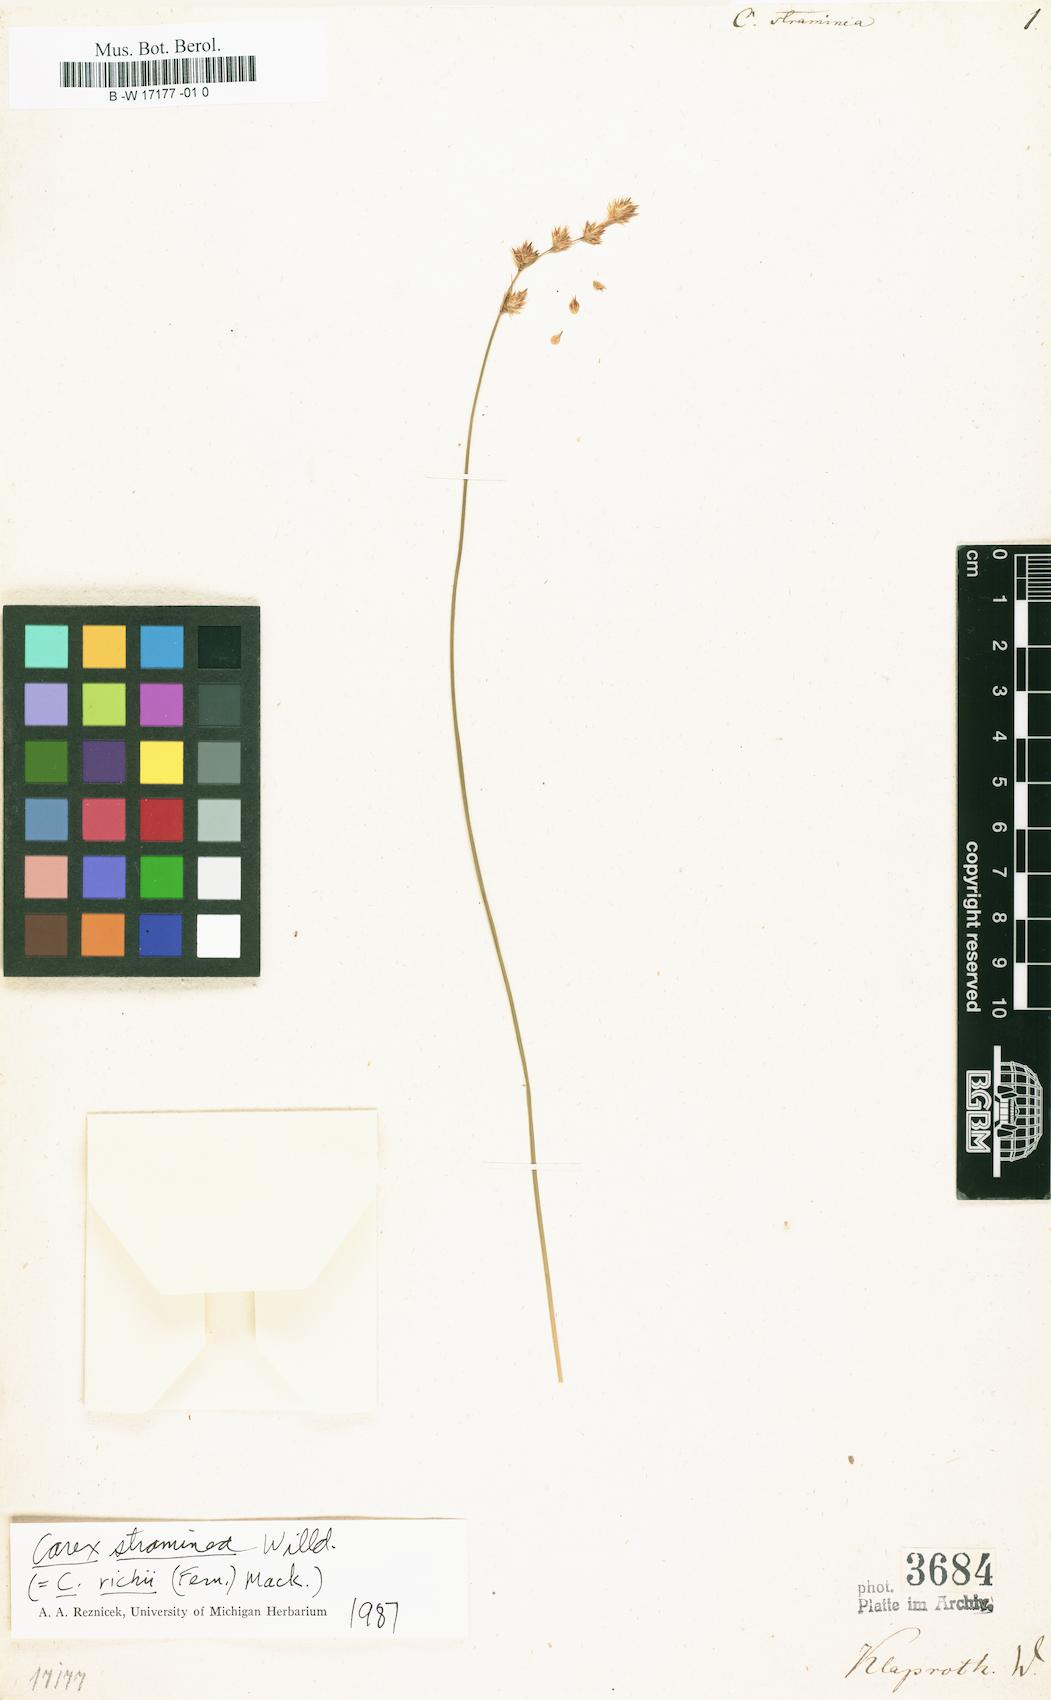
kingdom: Plantae
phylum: Tracheophyta
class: Liliopsida
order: Poales
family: Cyperaceae
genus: Carex
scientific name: Carex straminea
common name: Eastern straw sedge
